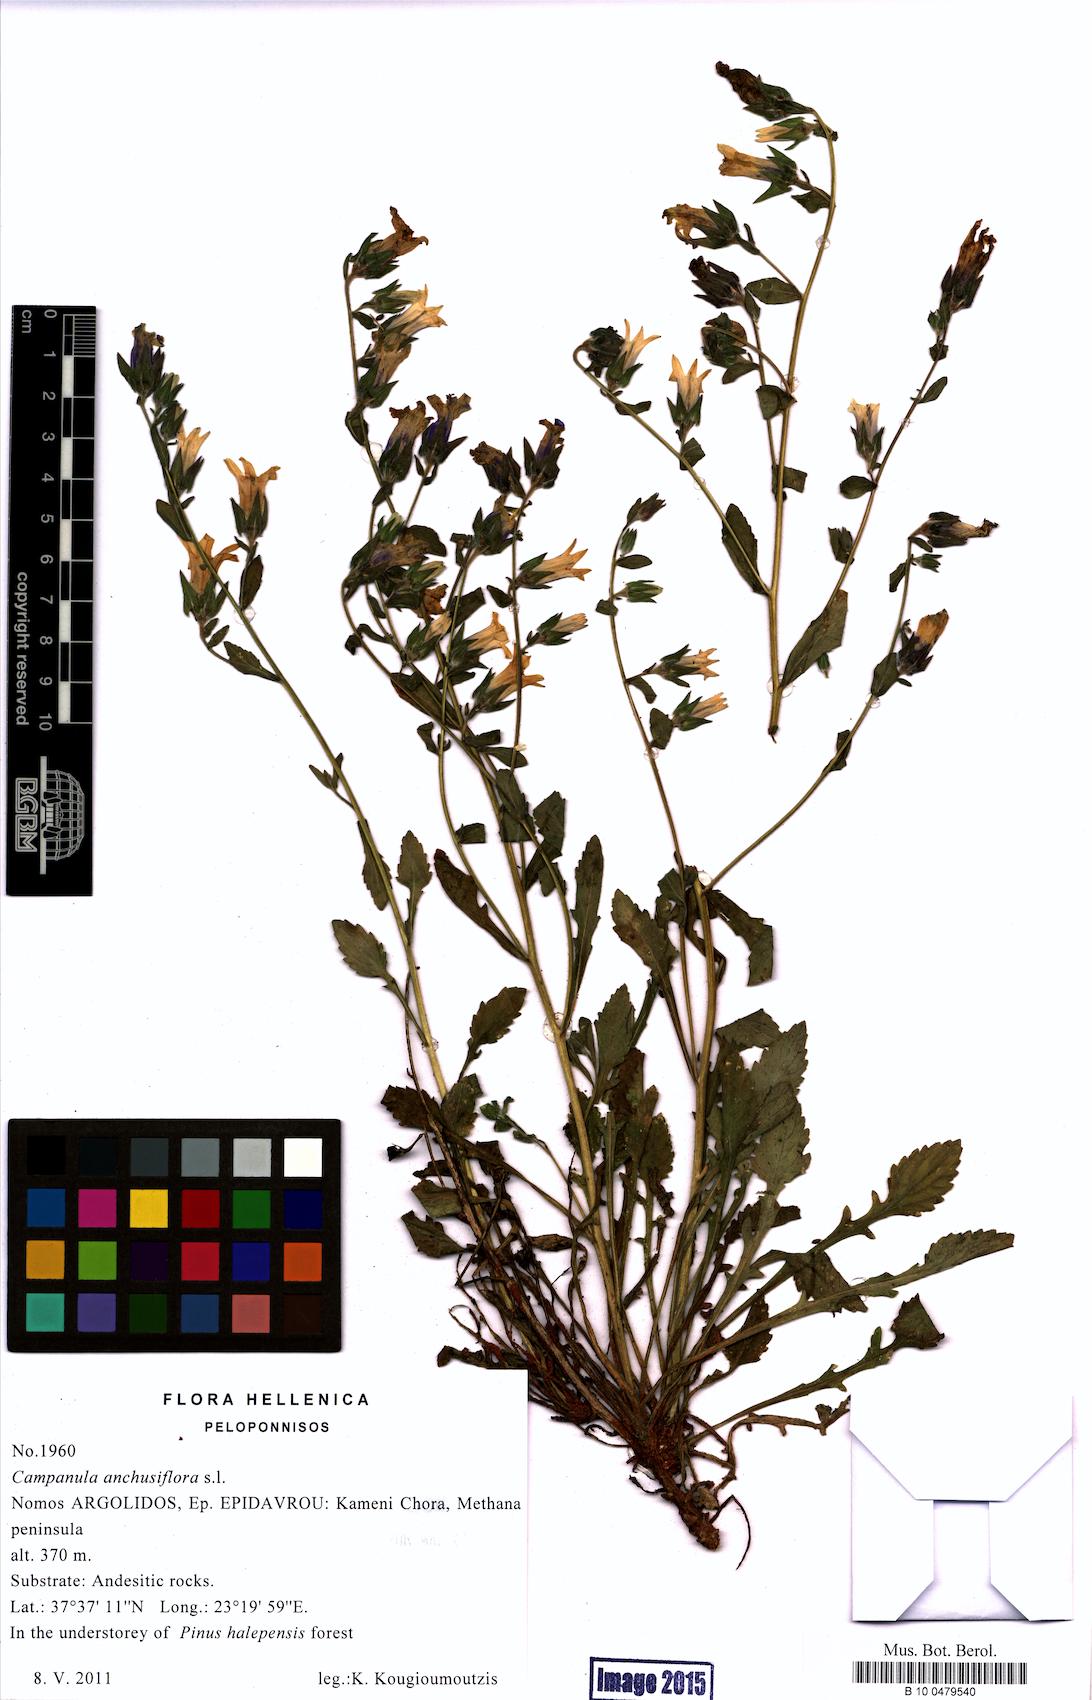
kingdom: Plantae
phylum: Tracheophyta
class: Magnoliopsida
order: Asterales
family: Campanulaceae
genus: Campanula
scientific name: Campanula anchusiflora
